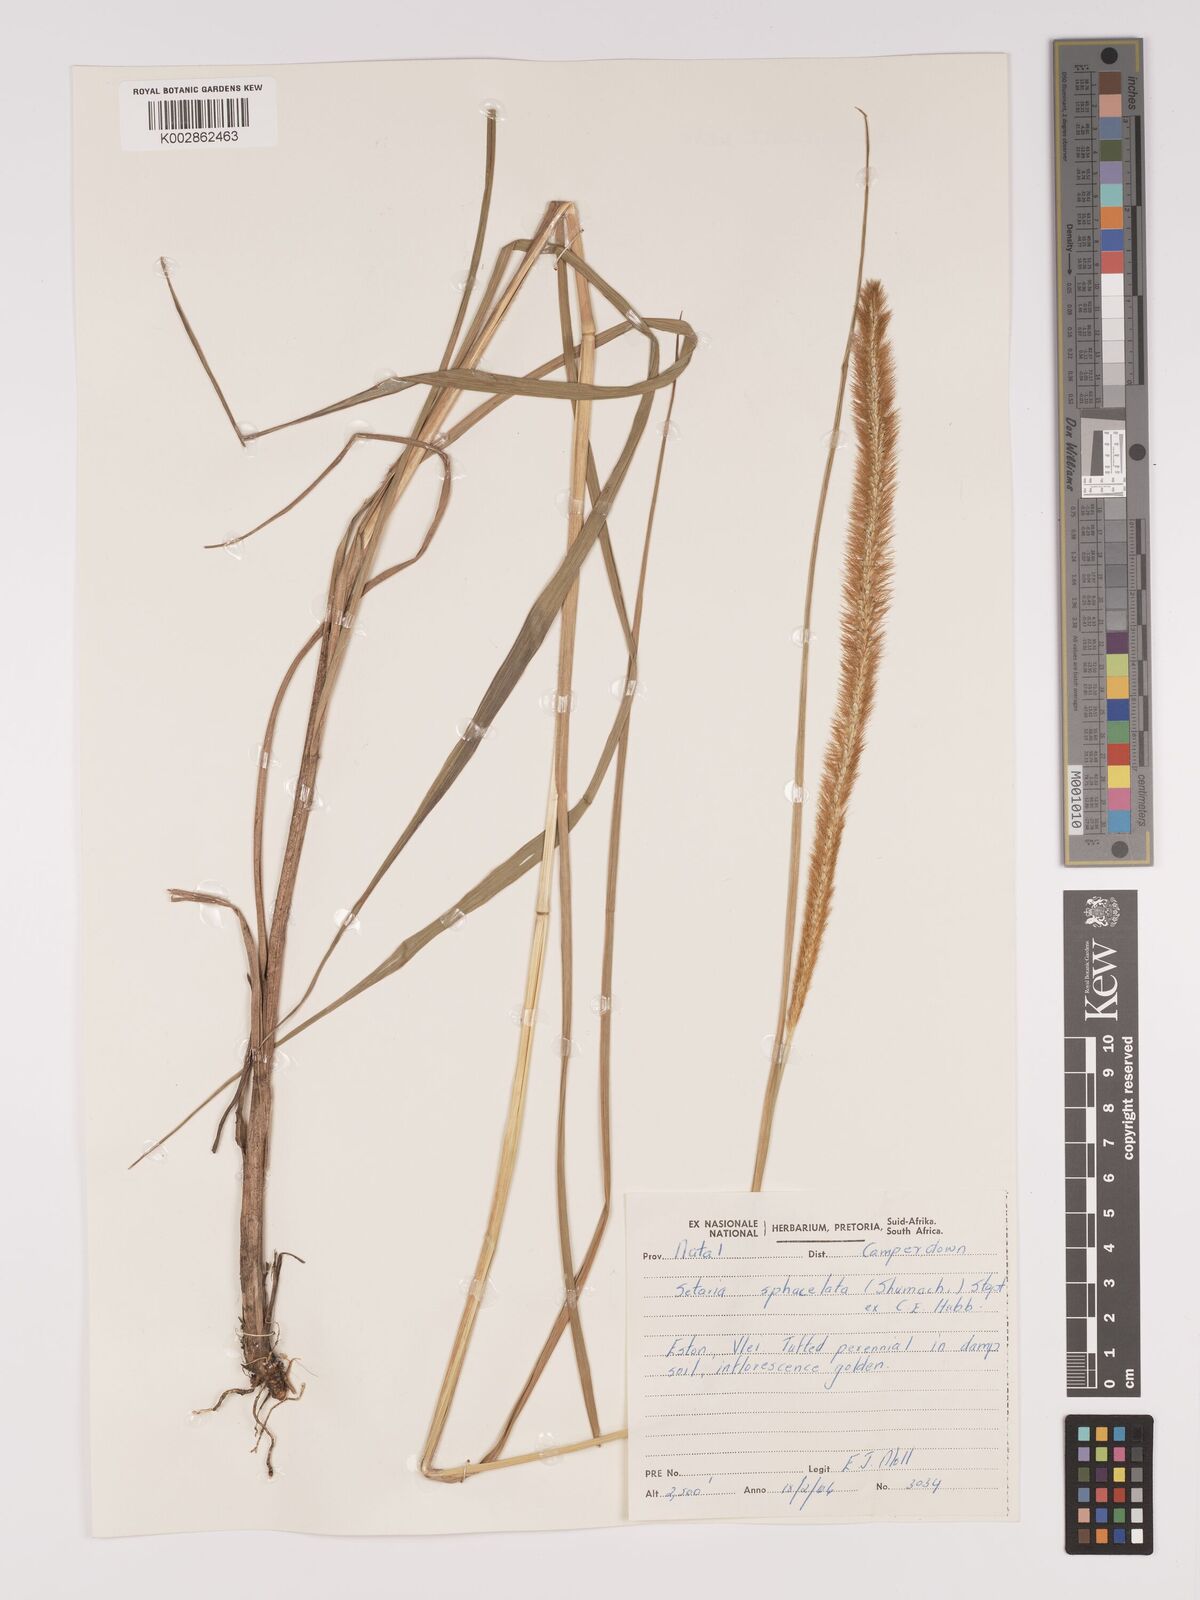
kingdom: Plantae
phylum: Tracheophyta
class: Liliopsida
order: Poales
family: Poaceae
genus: Setaria
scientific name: Setaria sphacelata
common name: African bristlegrass
